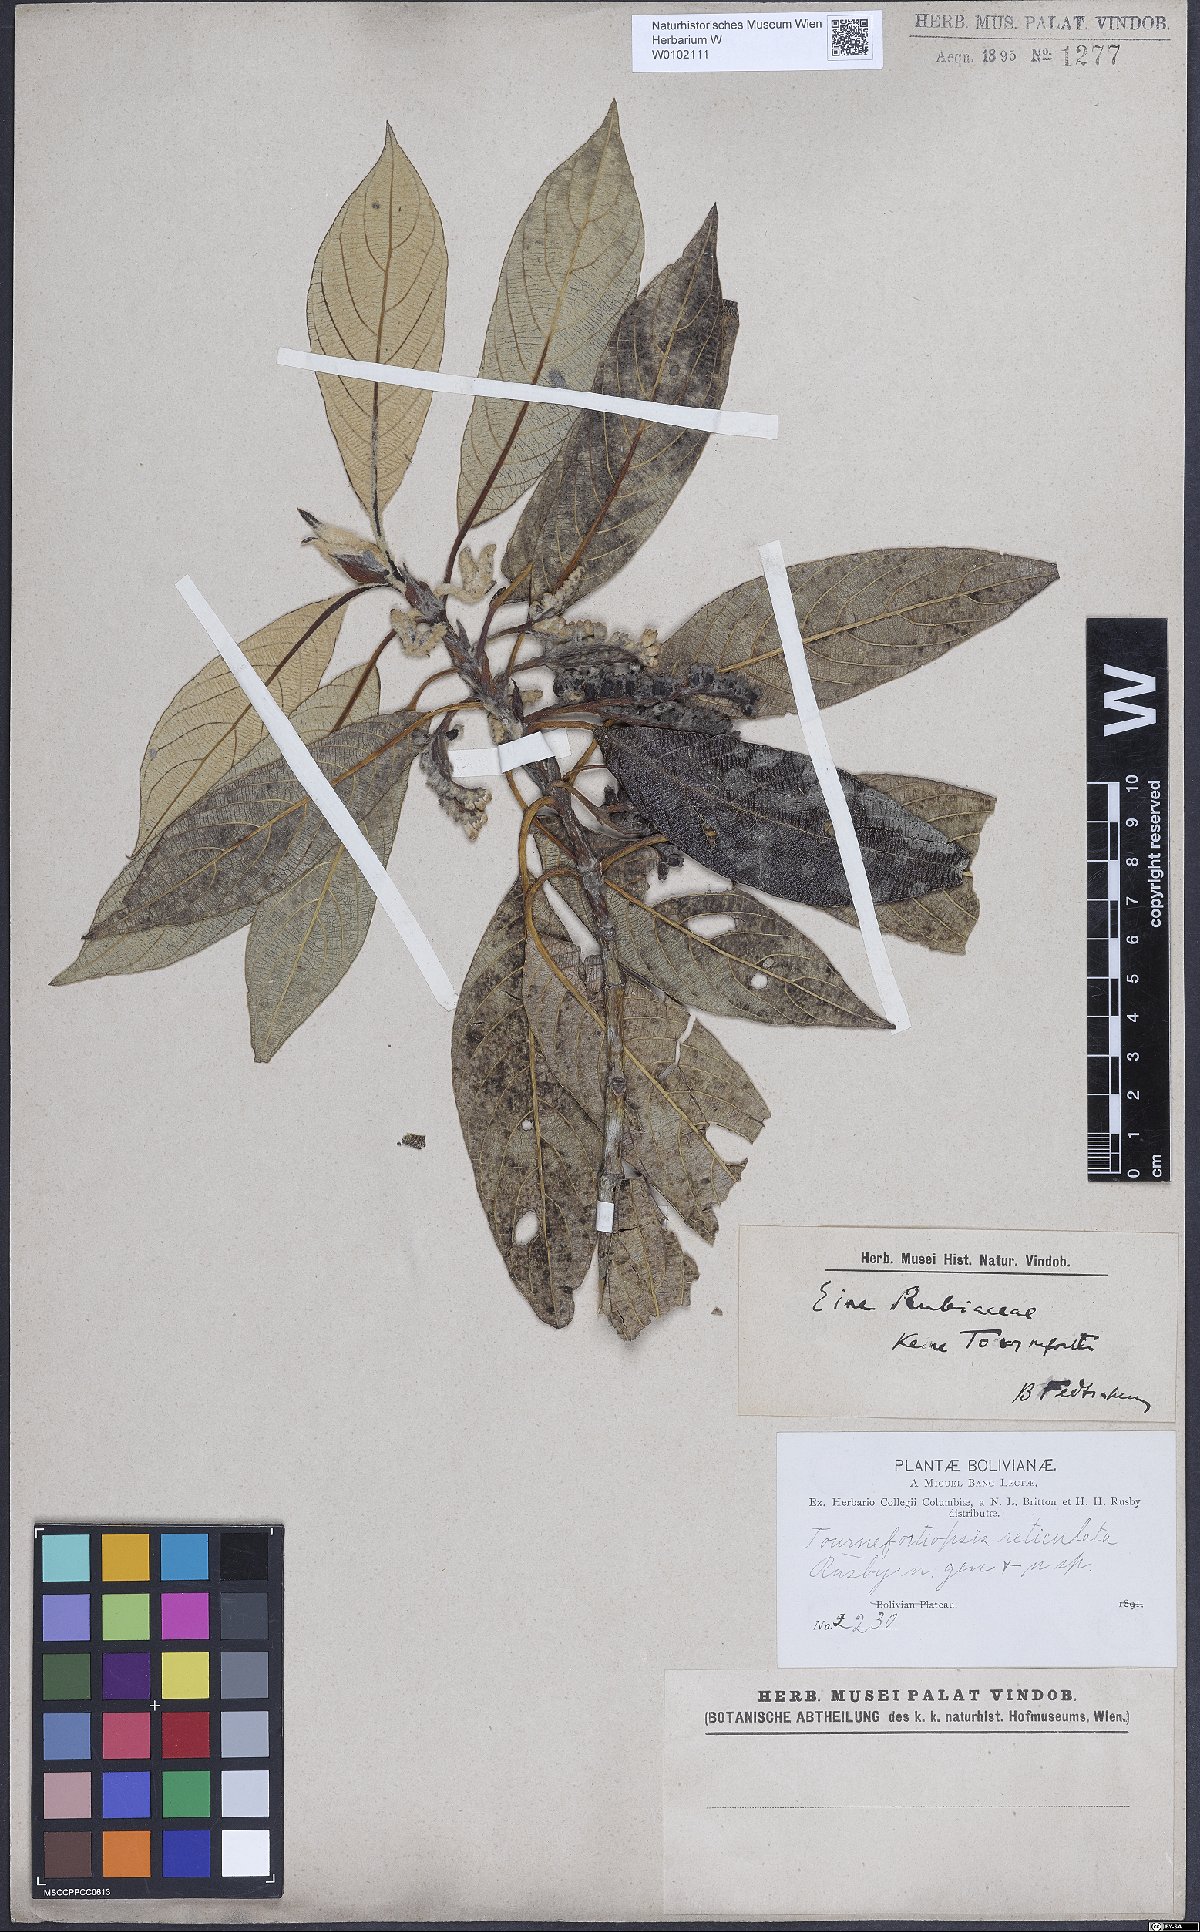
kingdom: Plantae
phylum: Tracheophyta
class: Magnoliopsida
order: Gentianales
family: Rubiaceae
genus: Tournefortiopsis
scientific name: Tournefortiopsis reticulata
